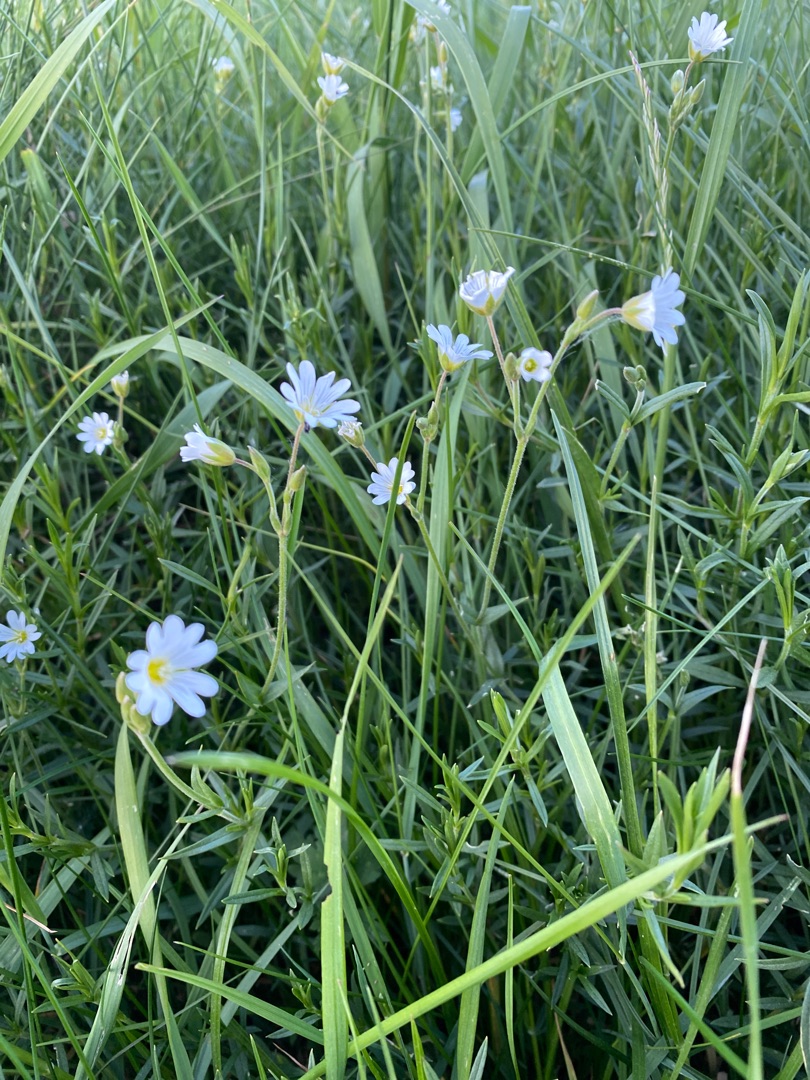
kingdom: Plantae
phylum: Tracheophyta
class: Magnoliopsida
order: Caryophyllales
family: Caryophyllaceae
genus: Cerastium
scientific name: Cerastium arvense
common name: Storblomstret hønsetarm
